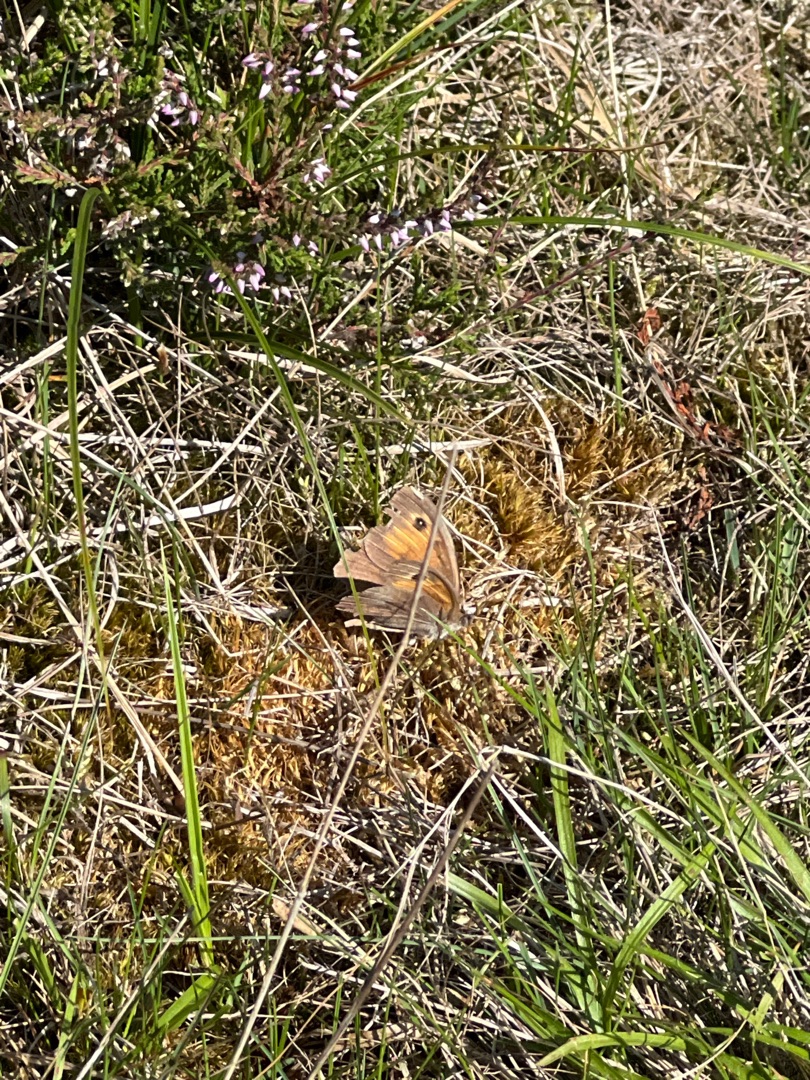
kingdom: Animalia
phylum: Arthropoda
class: Insecta
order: Lepidoptera
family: Nymphalidae
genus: Maniola
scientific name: Maniola jurtina
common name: Græsrandøje
